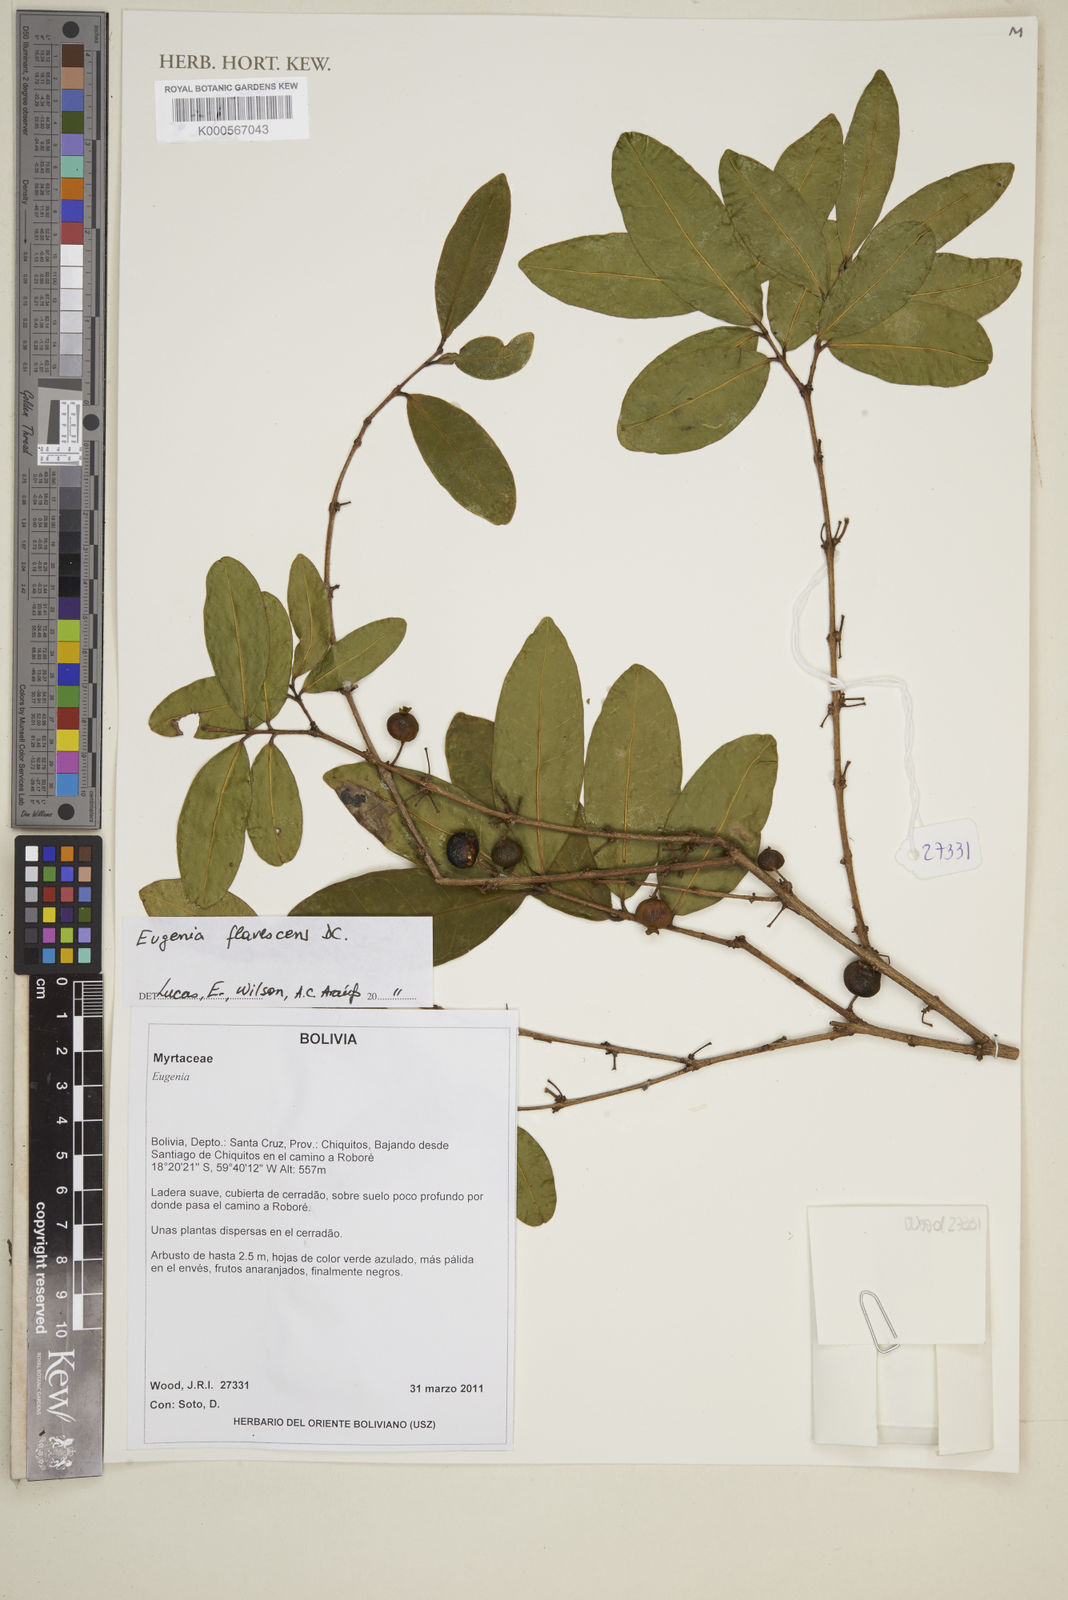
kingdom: Plantae
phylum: Tracheophyta
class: Magnoliopsida
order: Myrtales
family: Myrtaceae
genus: Eugenia
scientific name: Eugenia flavescens
